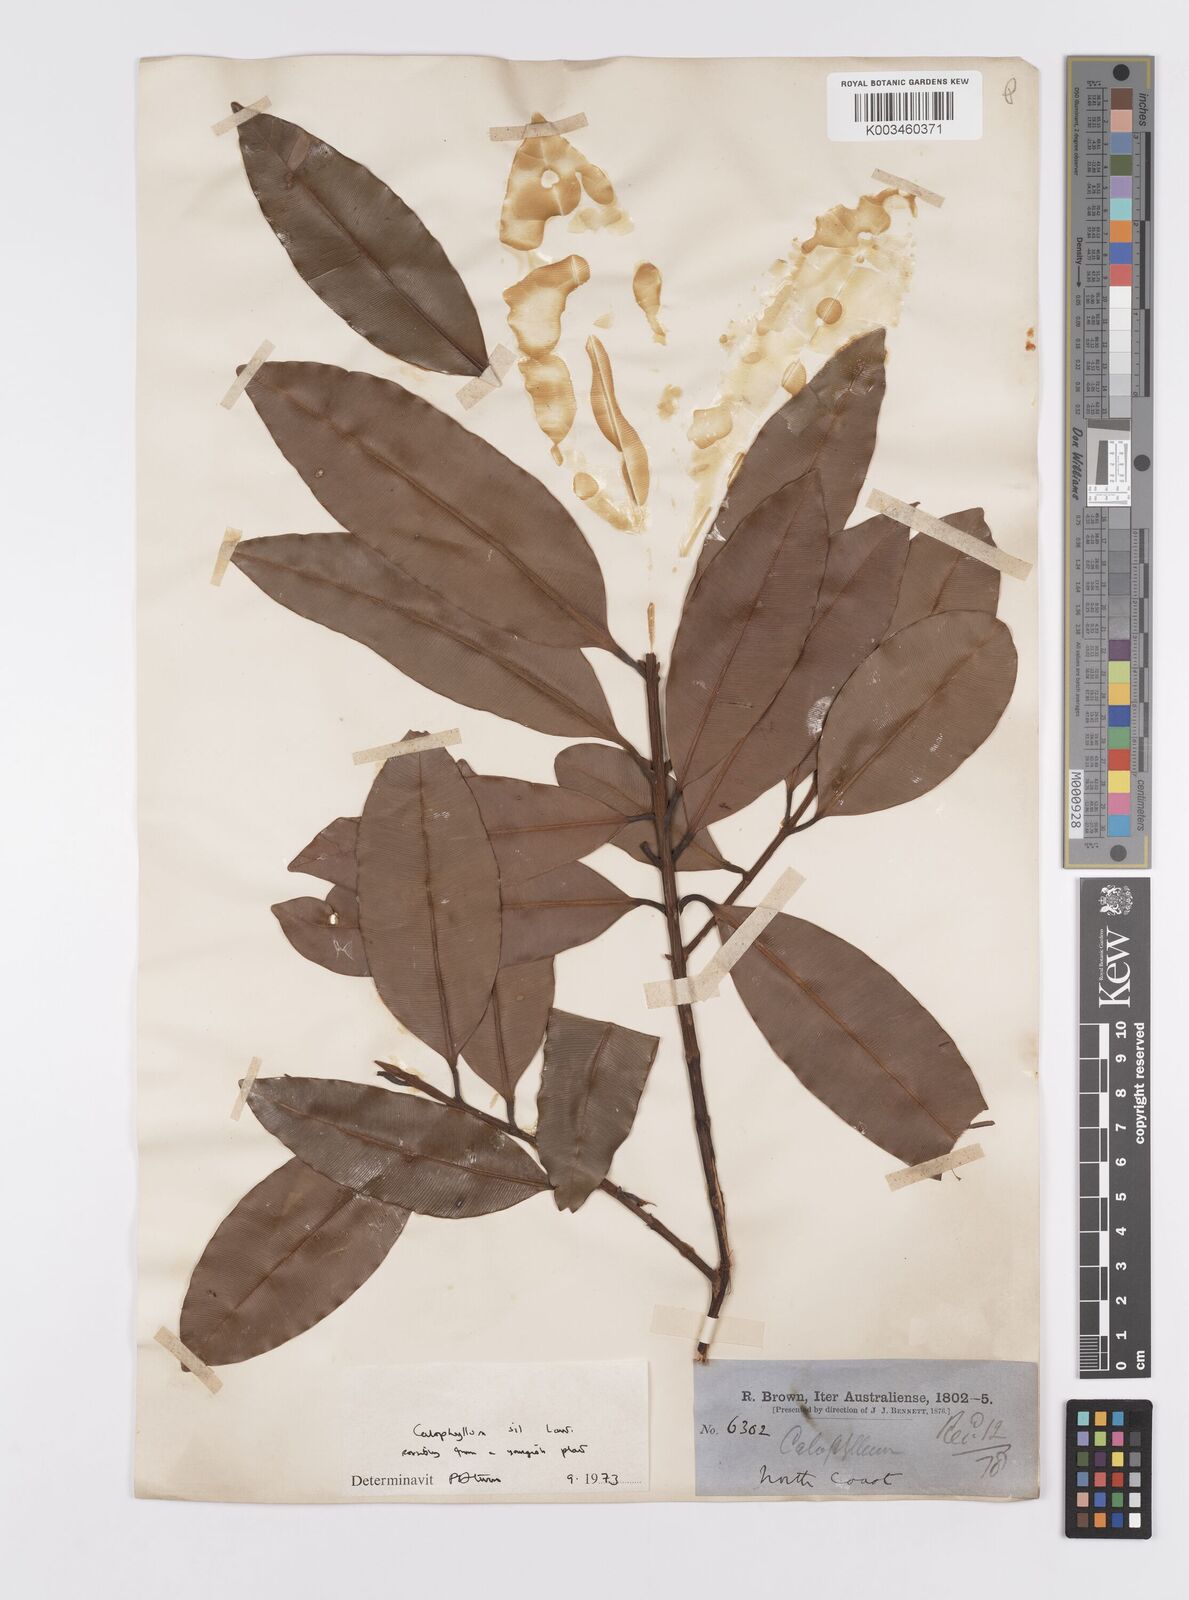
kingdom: Plantae
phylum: Tracheophyta
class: Magnoliopsida
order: Malpighiales
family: Calophyllaceae
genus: Calophyllum
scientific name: Calophyllum sil
